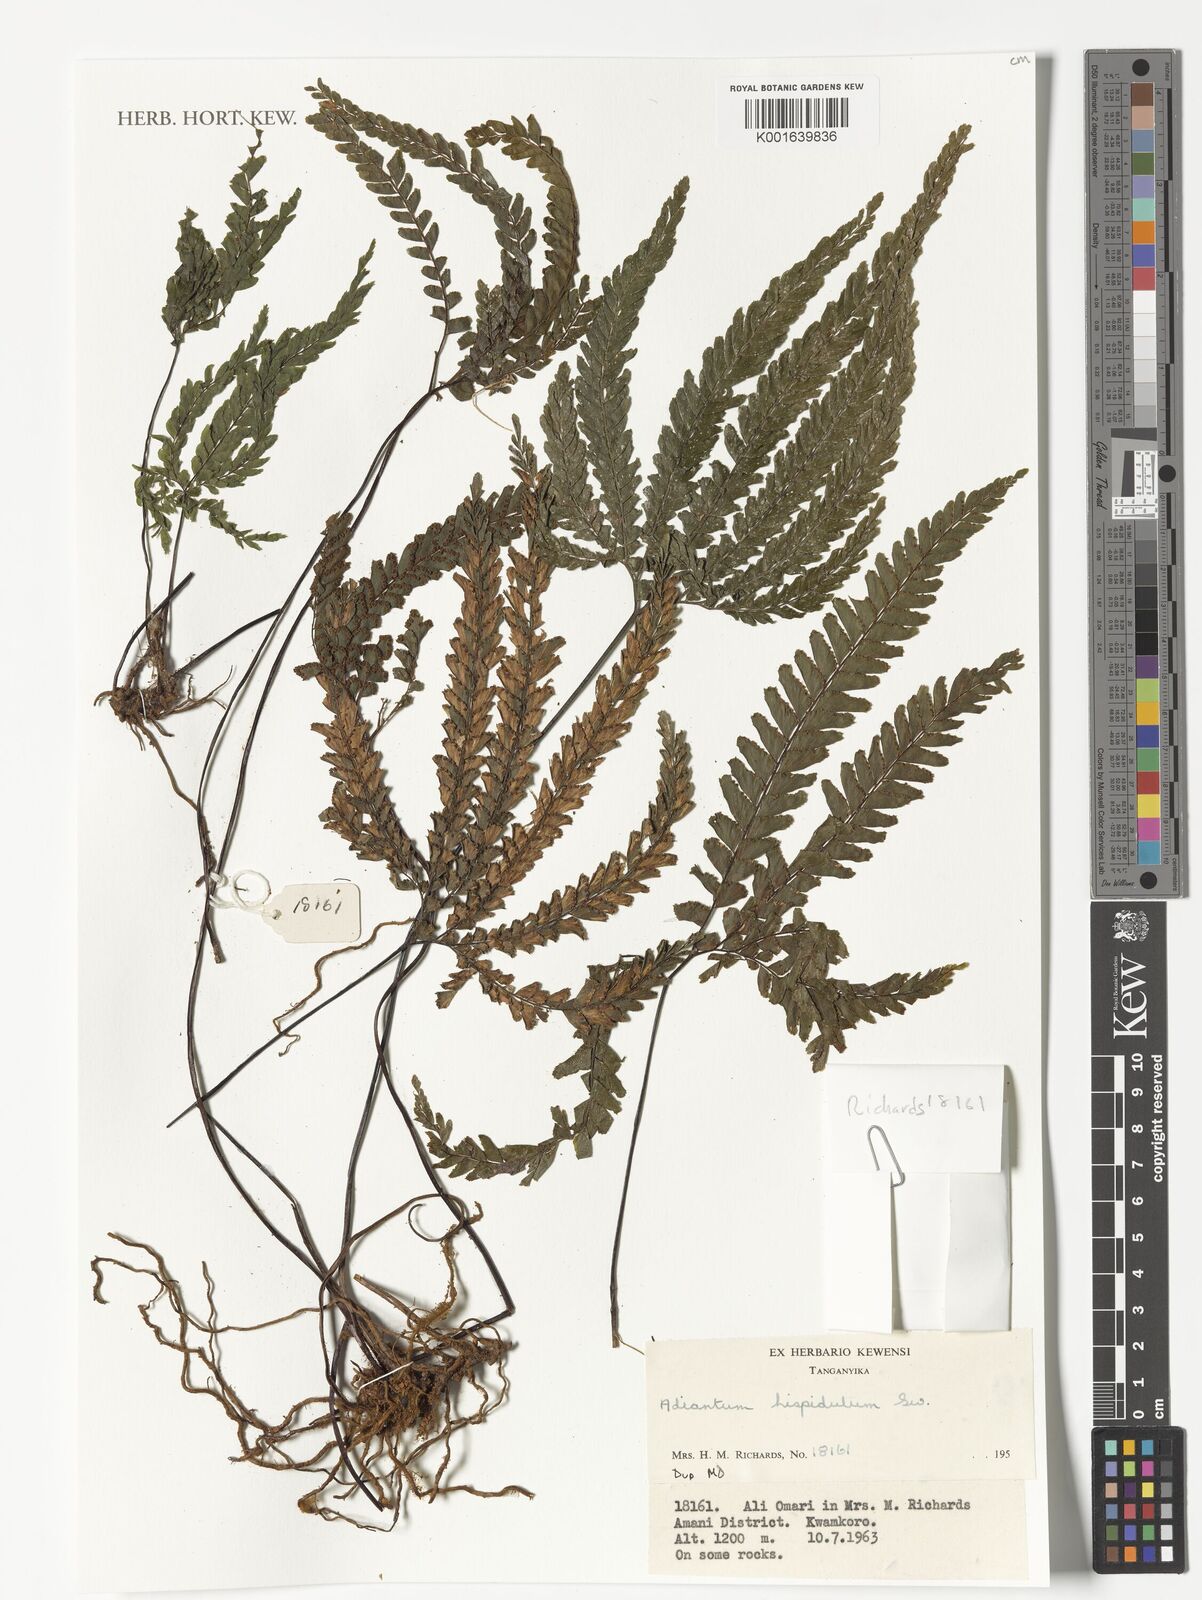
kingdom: Plantae
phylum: Tracheophyta
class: Polypodiopsida
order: Polypodiales
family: Pteridaceae
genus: Adiantum
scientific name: Adiantum hispidulum
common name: Rough maidenhair
